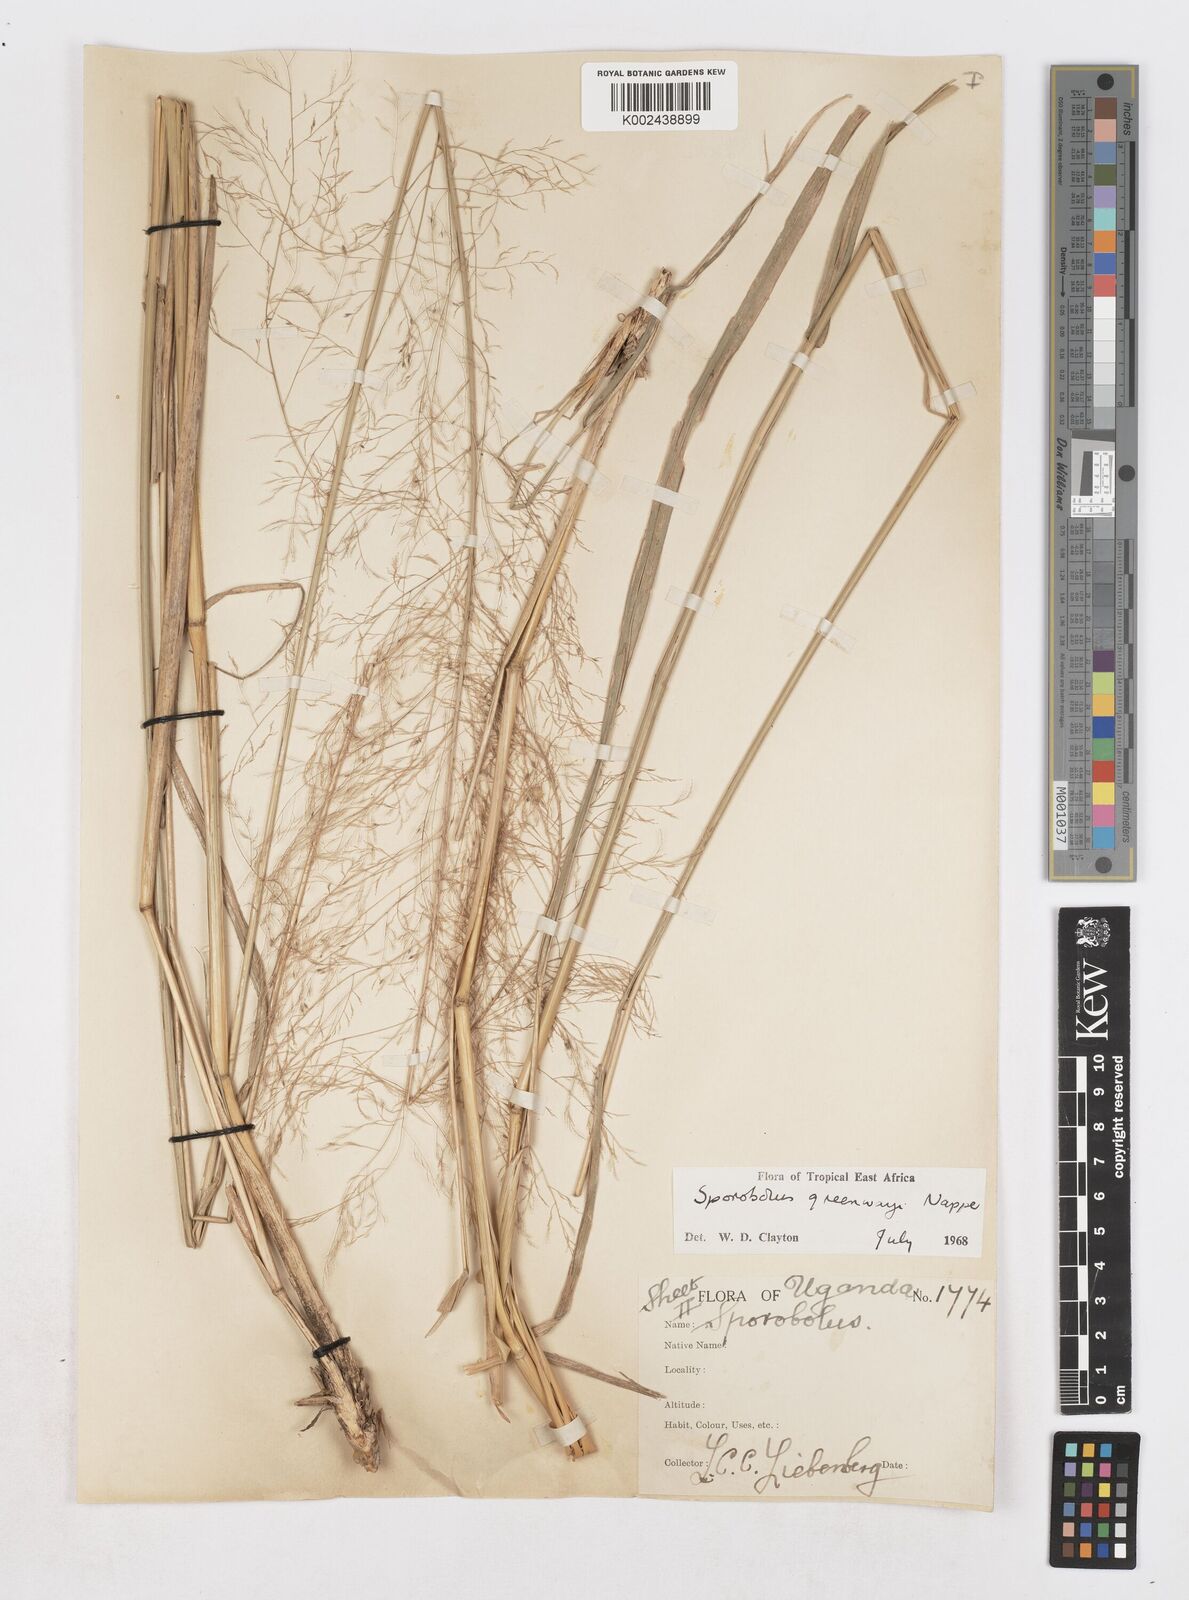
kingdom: Plantae
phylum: Tracheophyta
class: Liliopsida
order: Poales
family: Poaceae
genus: Sporobolus
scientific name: Sporobolus macranthelus
